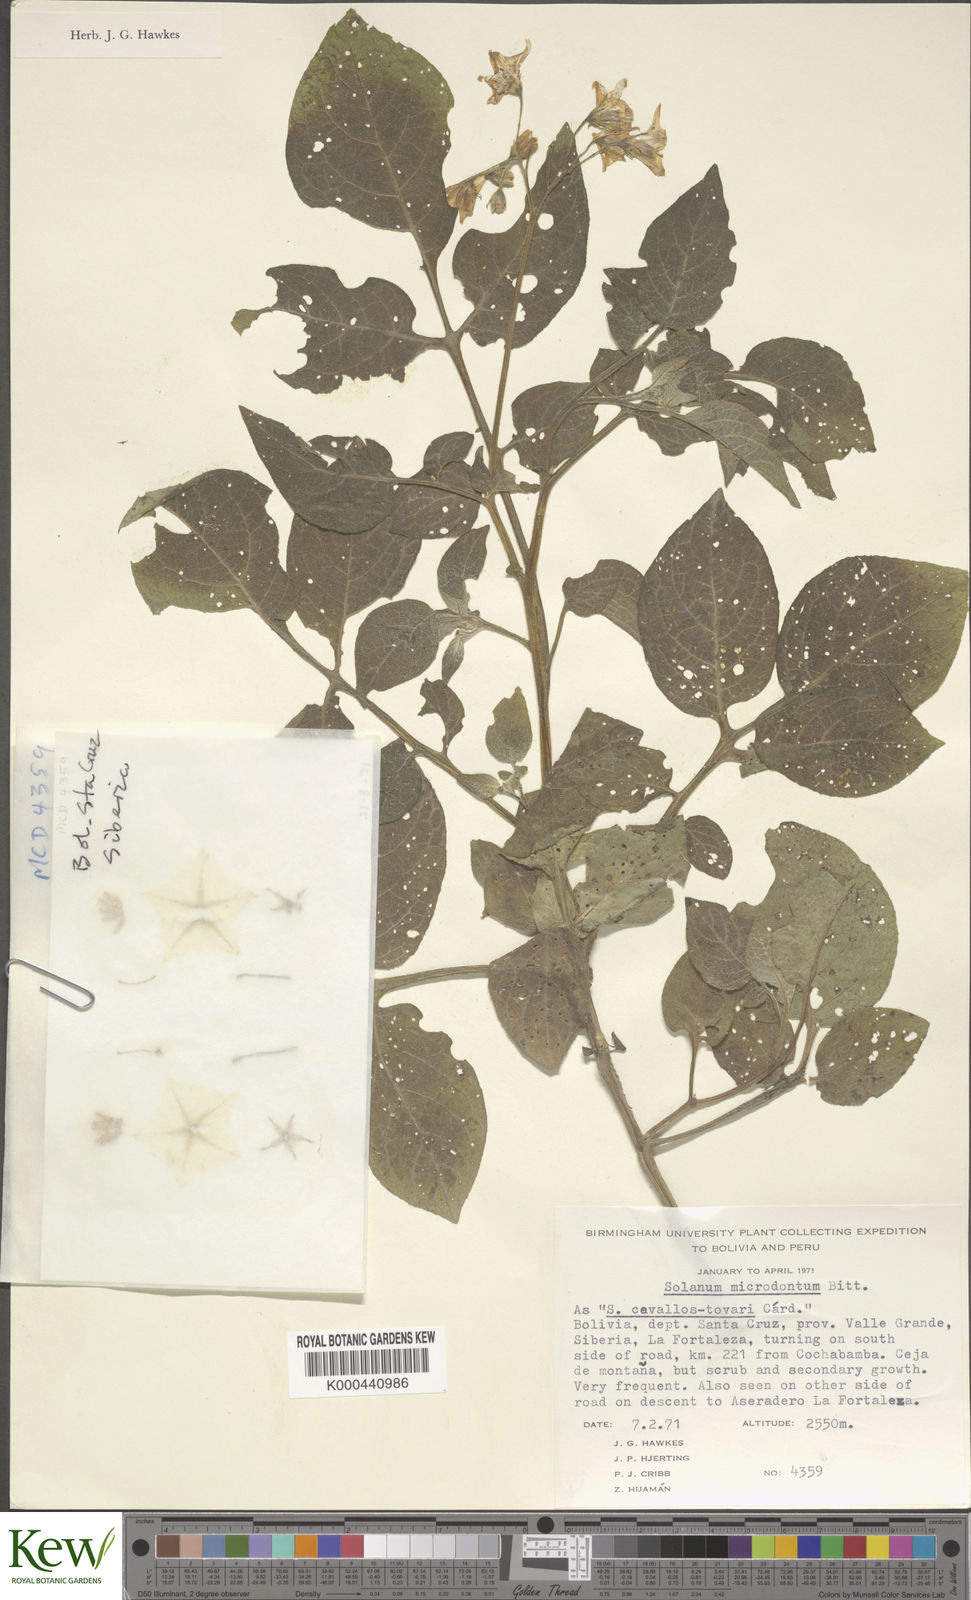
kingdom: Plantae
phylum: Tracheophyta
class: Magnoliopsida
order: Solanales
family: Solanaceae
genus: Solanum
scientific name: Solanum microdontum
